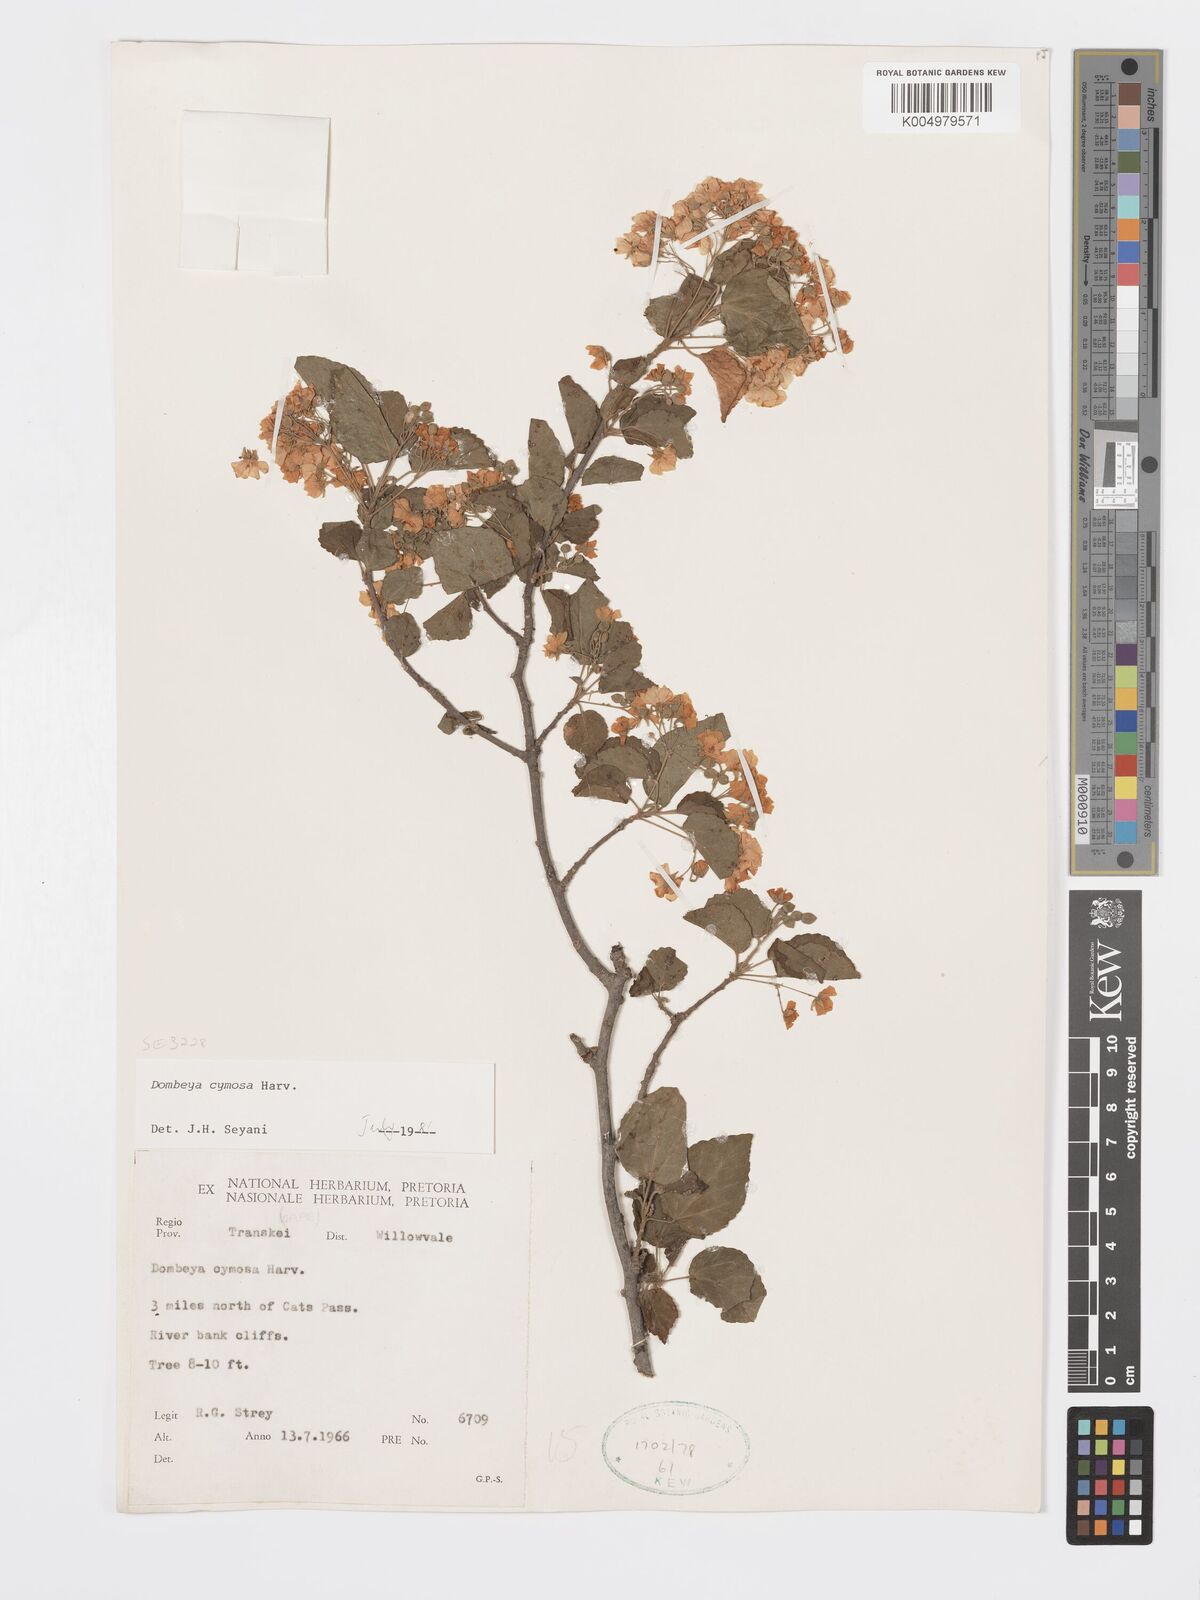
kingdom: Plantae
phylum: Tracheophyta
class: Magnoliopsida
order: Malvales
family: Malvaceae
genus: Dombeya
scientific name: Dombeya cymosa
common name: Hairless dombeya
